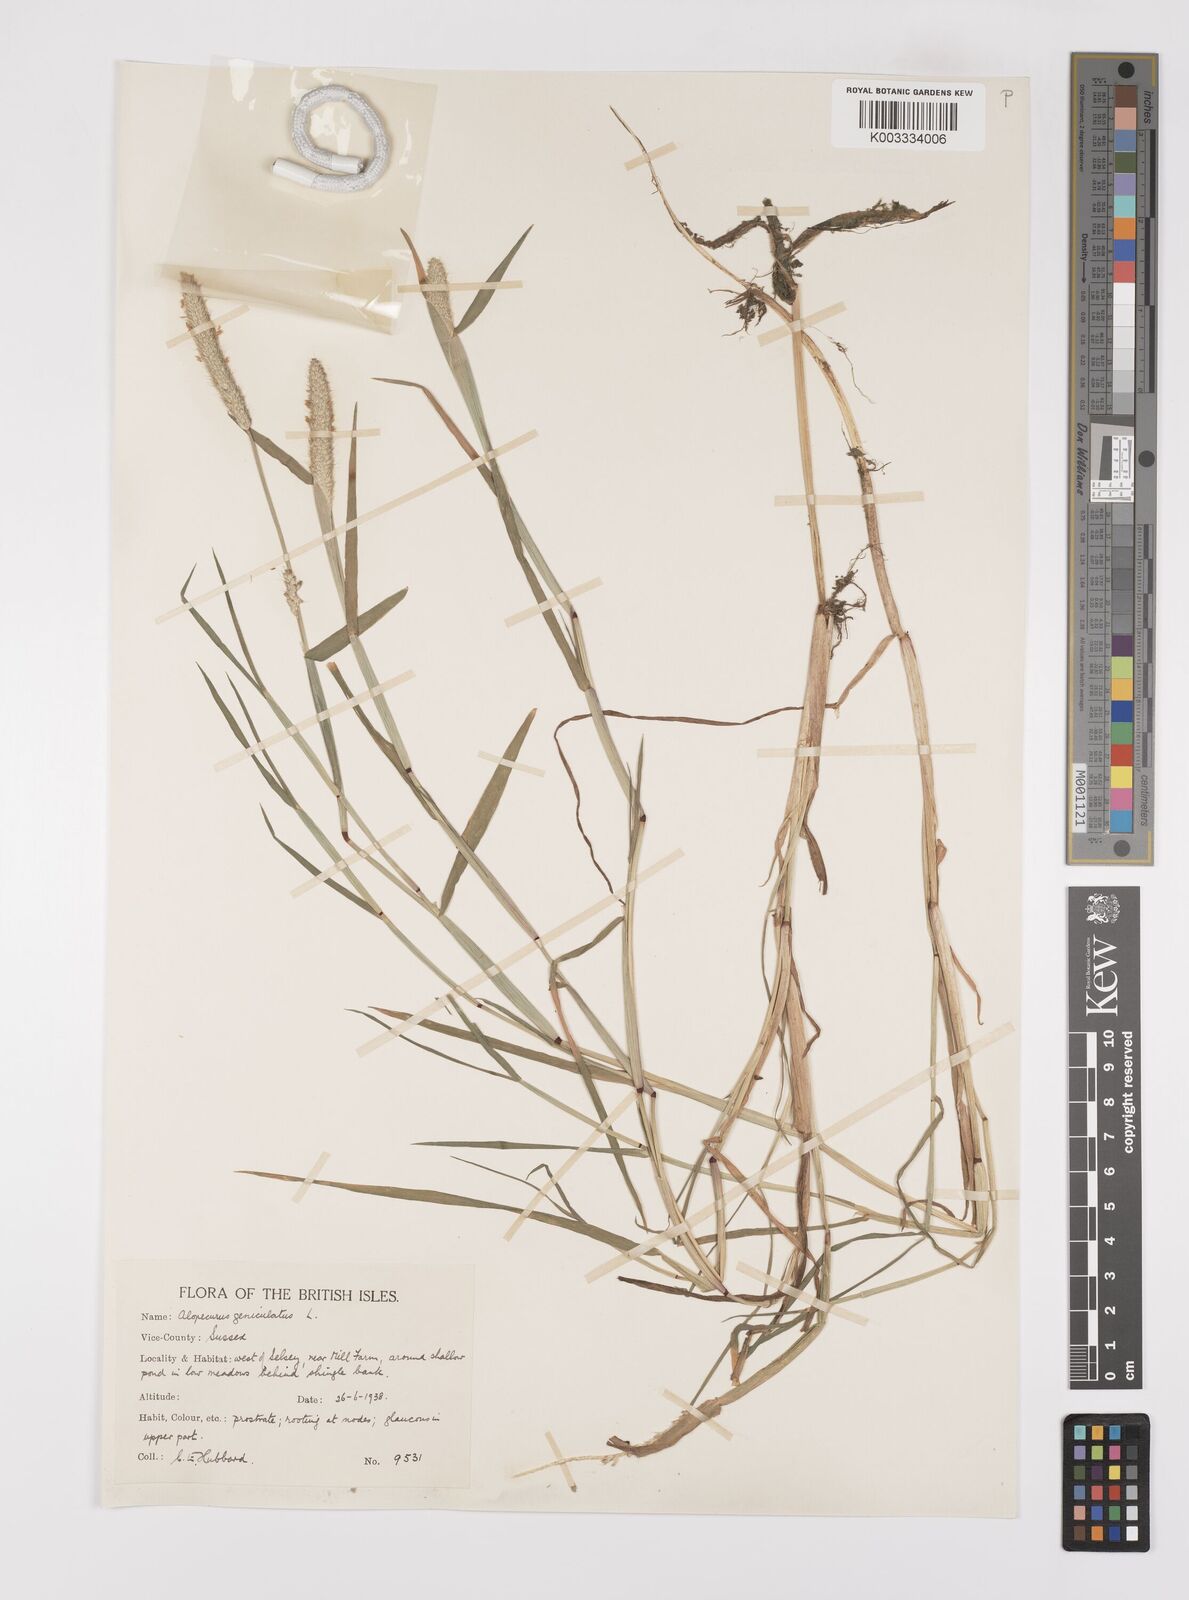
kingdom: Plantae
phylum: Tracheophyta
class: Liliopsida
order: Poales
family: Poaceae
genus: Alopecurus
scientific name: Alopecurus geniculatus
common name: Water foxtail
